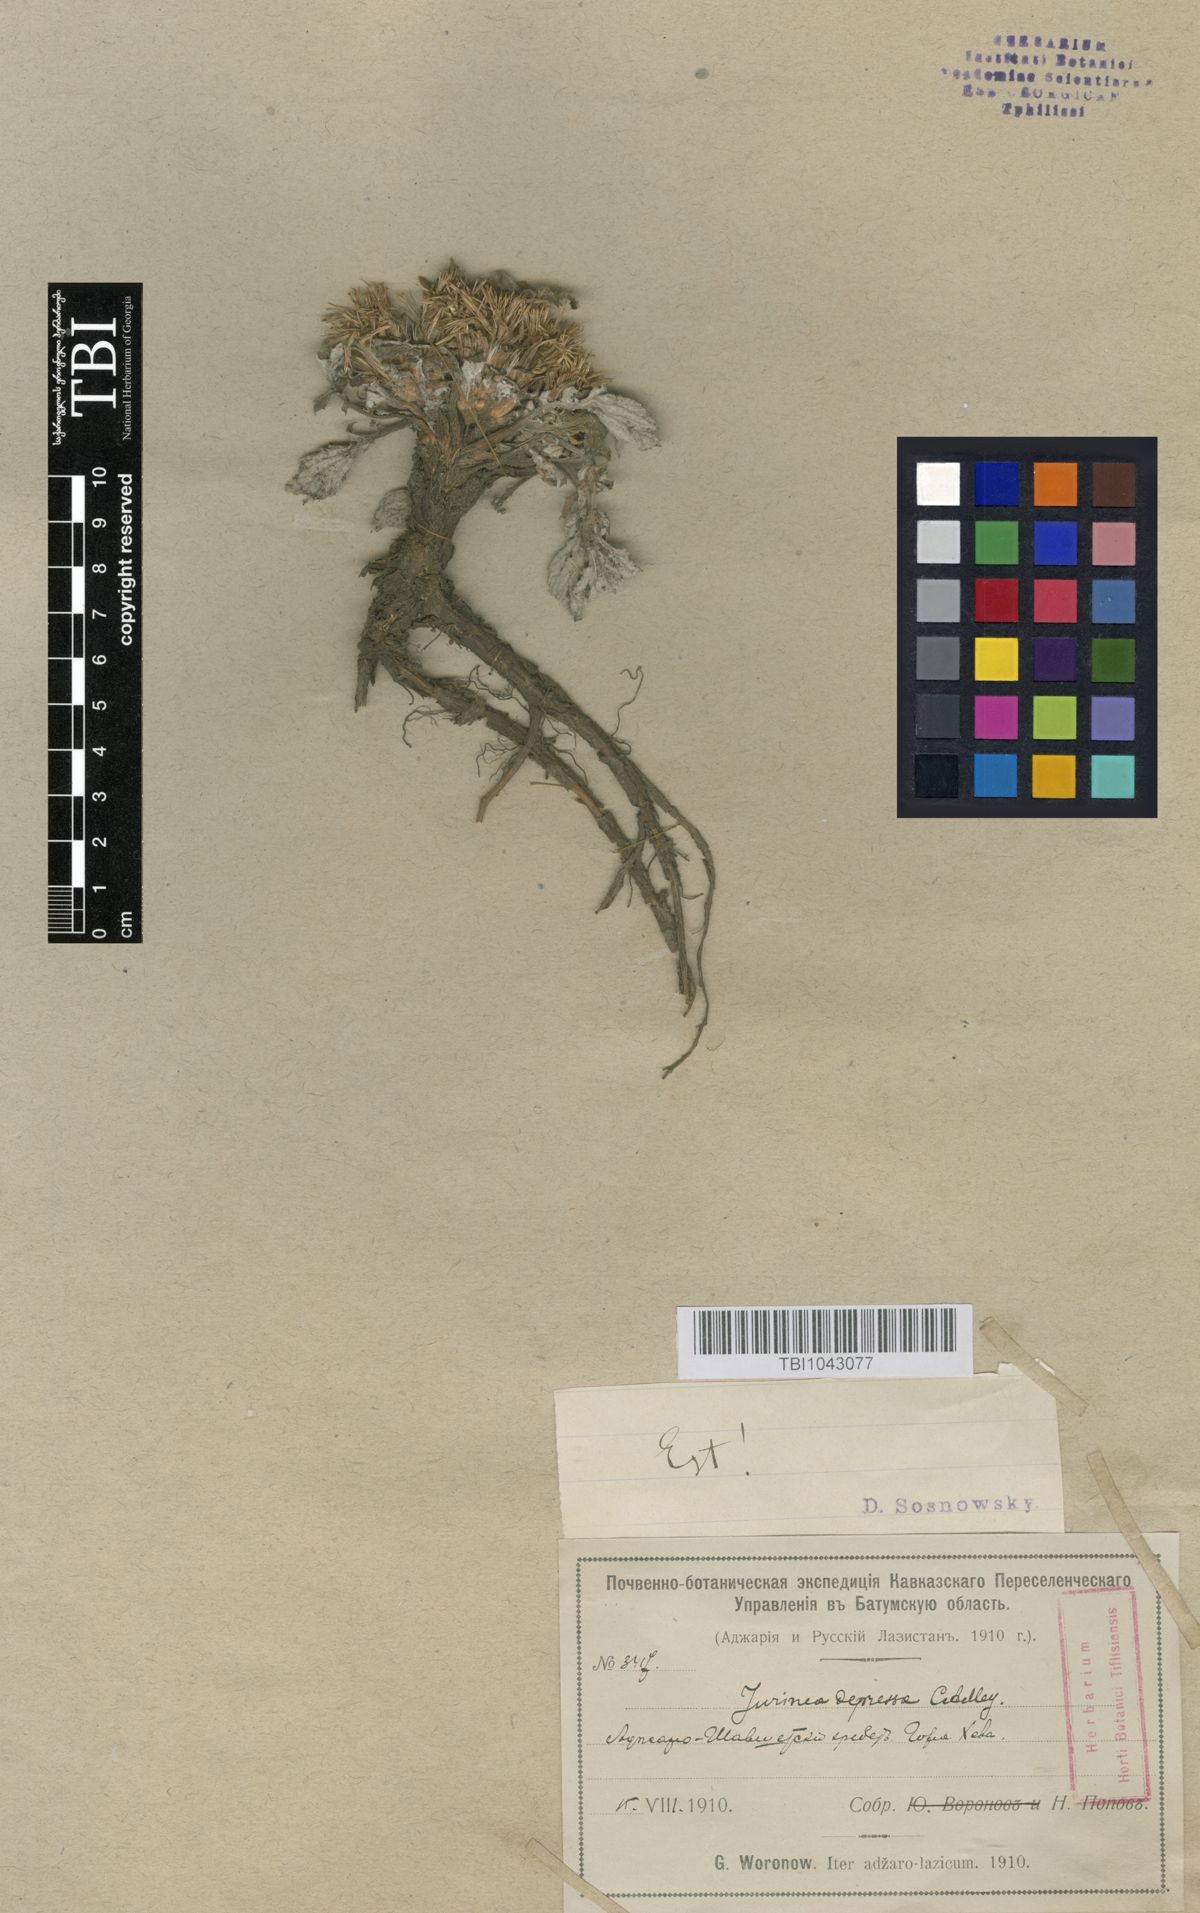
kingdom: Plantae
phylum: Tracheophyta
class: Magnoliopsida
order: Asterales
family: Asteraceae
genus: Jurinea
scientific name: Jurinea moschus
